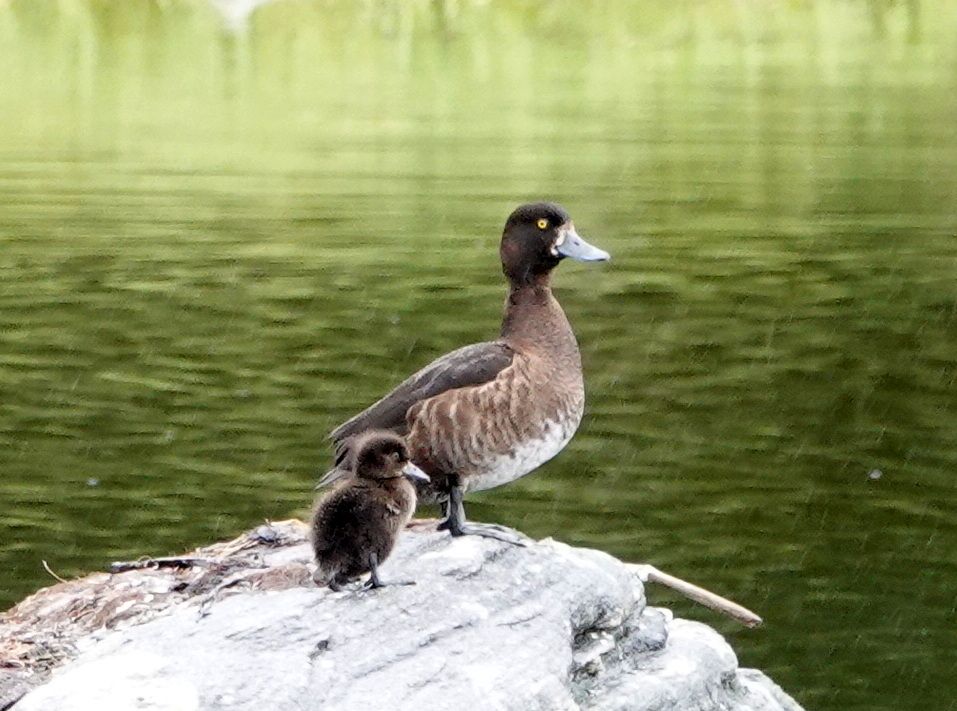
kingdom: Animalia
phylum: Chordata
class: Aves
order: Anseriformes
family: Anatidae
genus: Aythya
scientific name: Aythya fuligula
